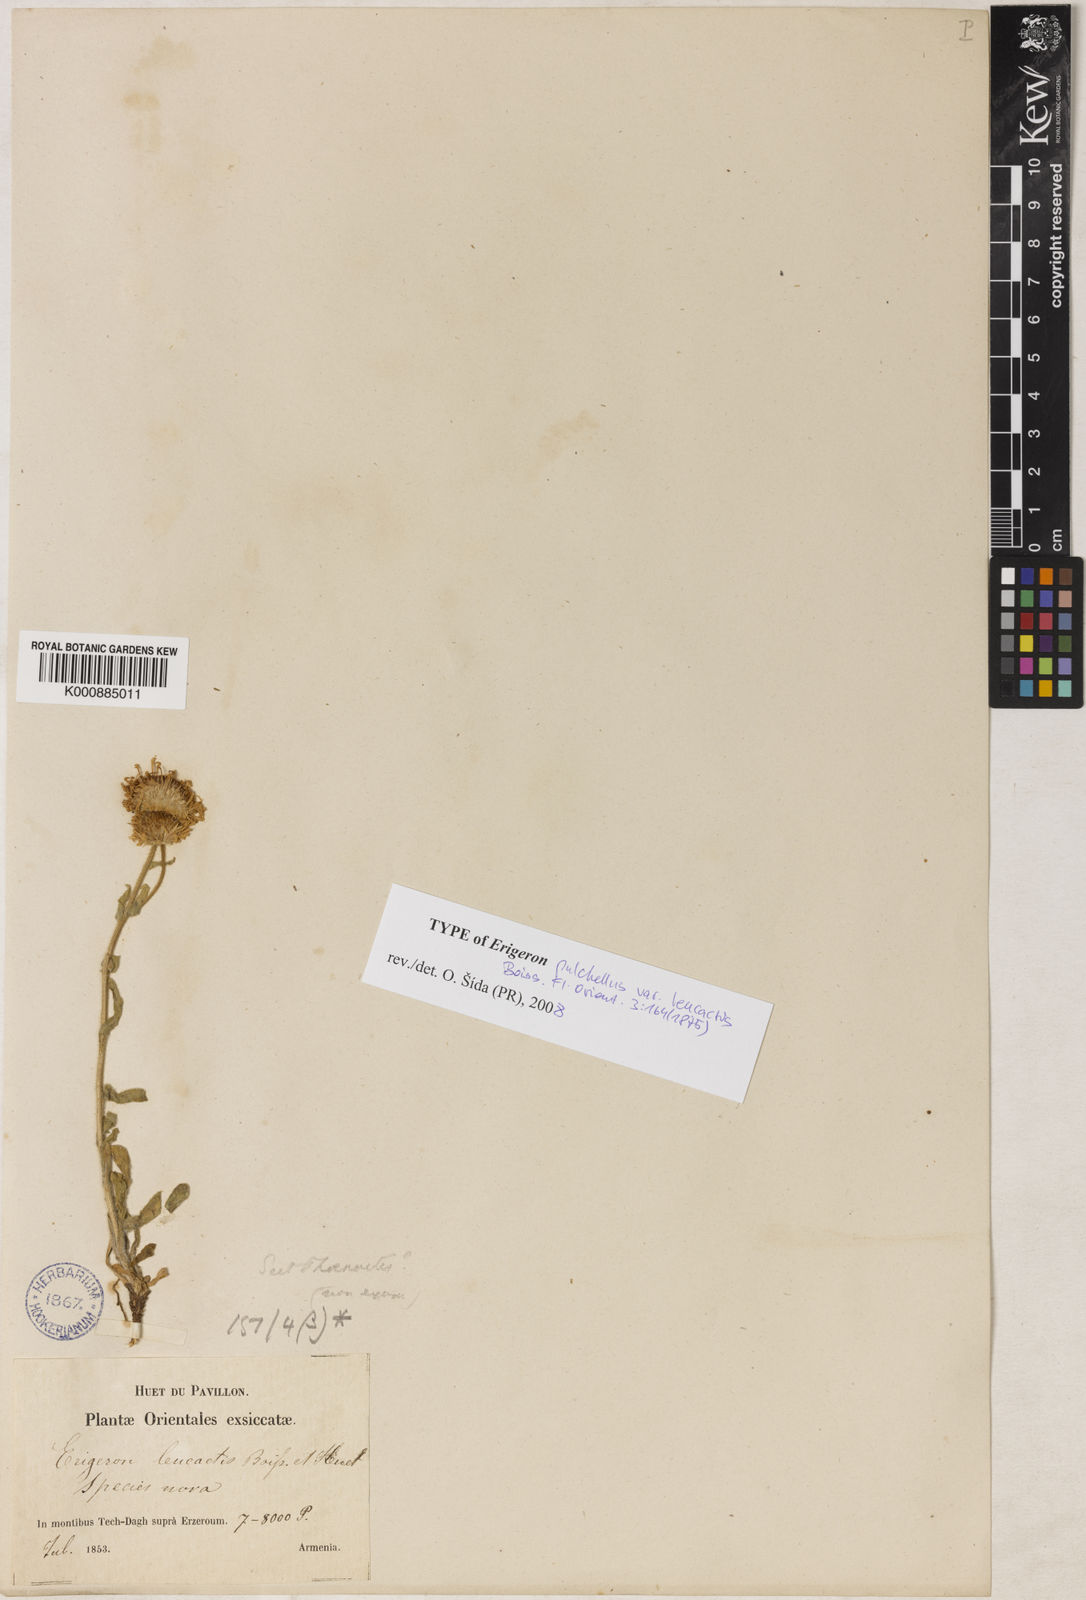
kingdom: Plantae
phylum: Tracheophyta
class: Magnoliopsida
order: Asterales
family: Asteraceae
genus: Erigeron
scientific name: Erigeron pulchellus
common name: Hairy fleabane
